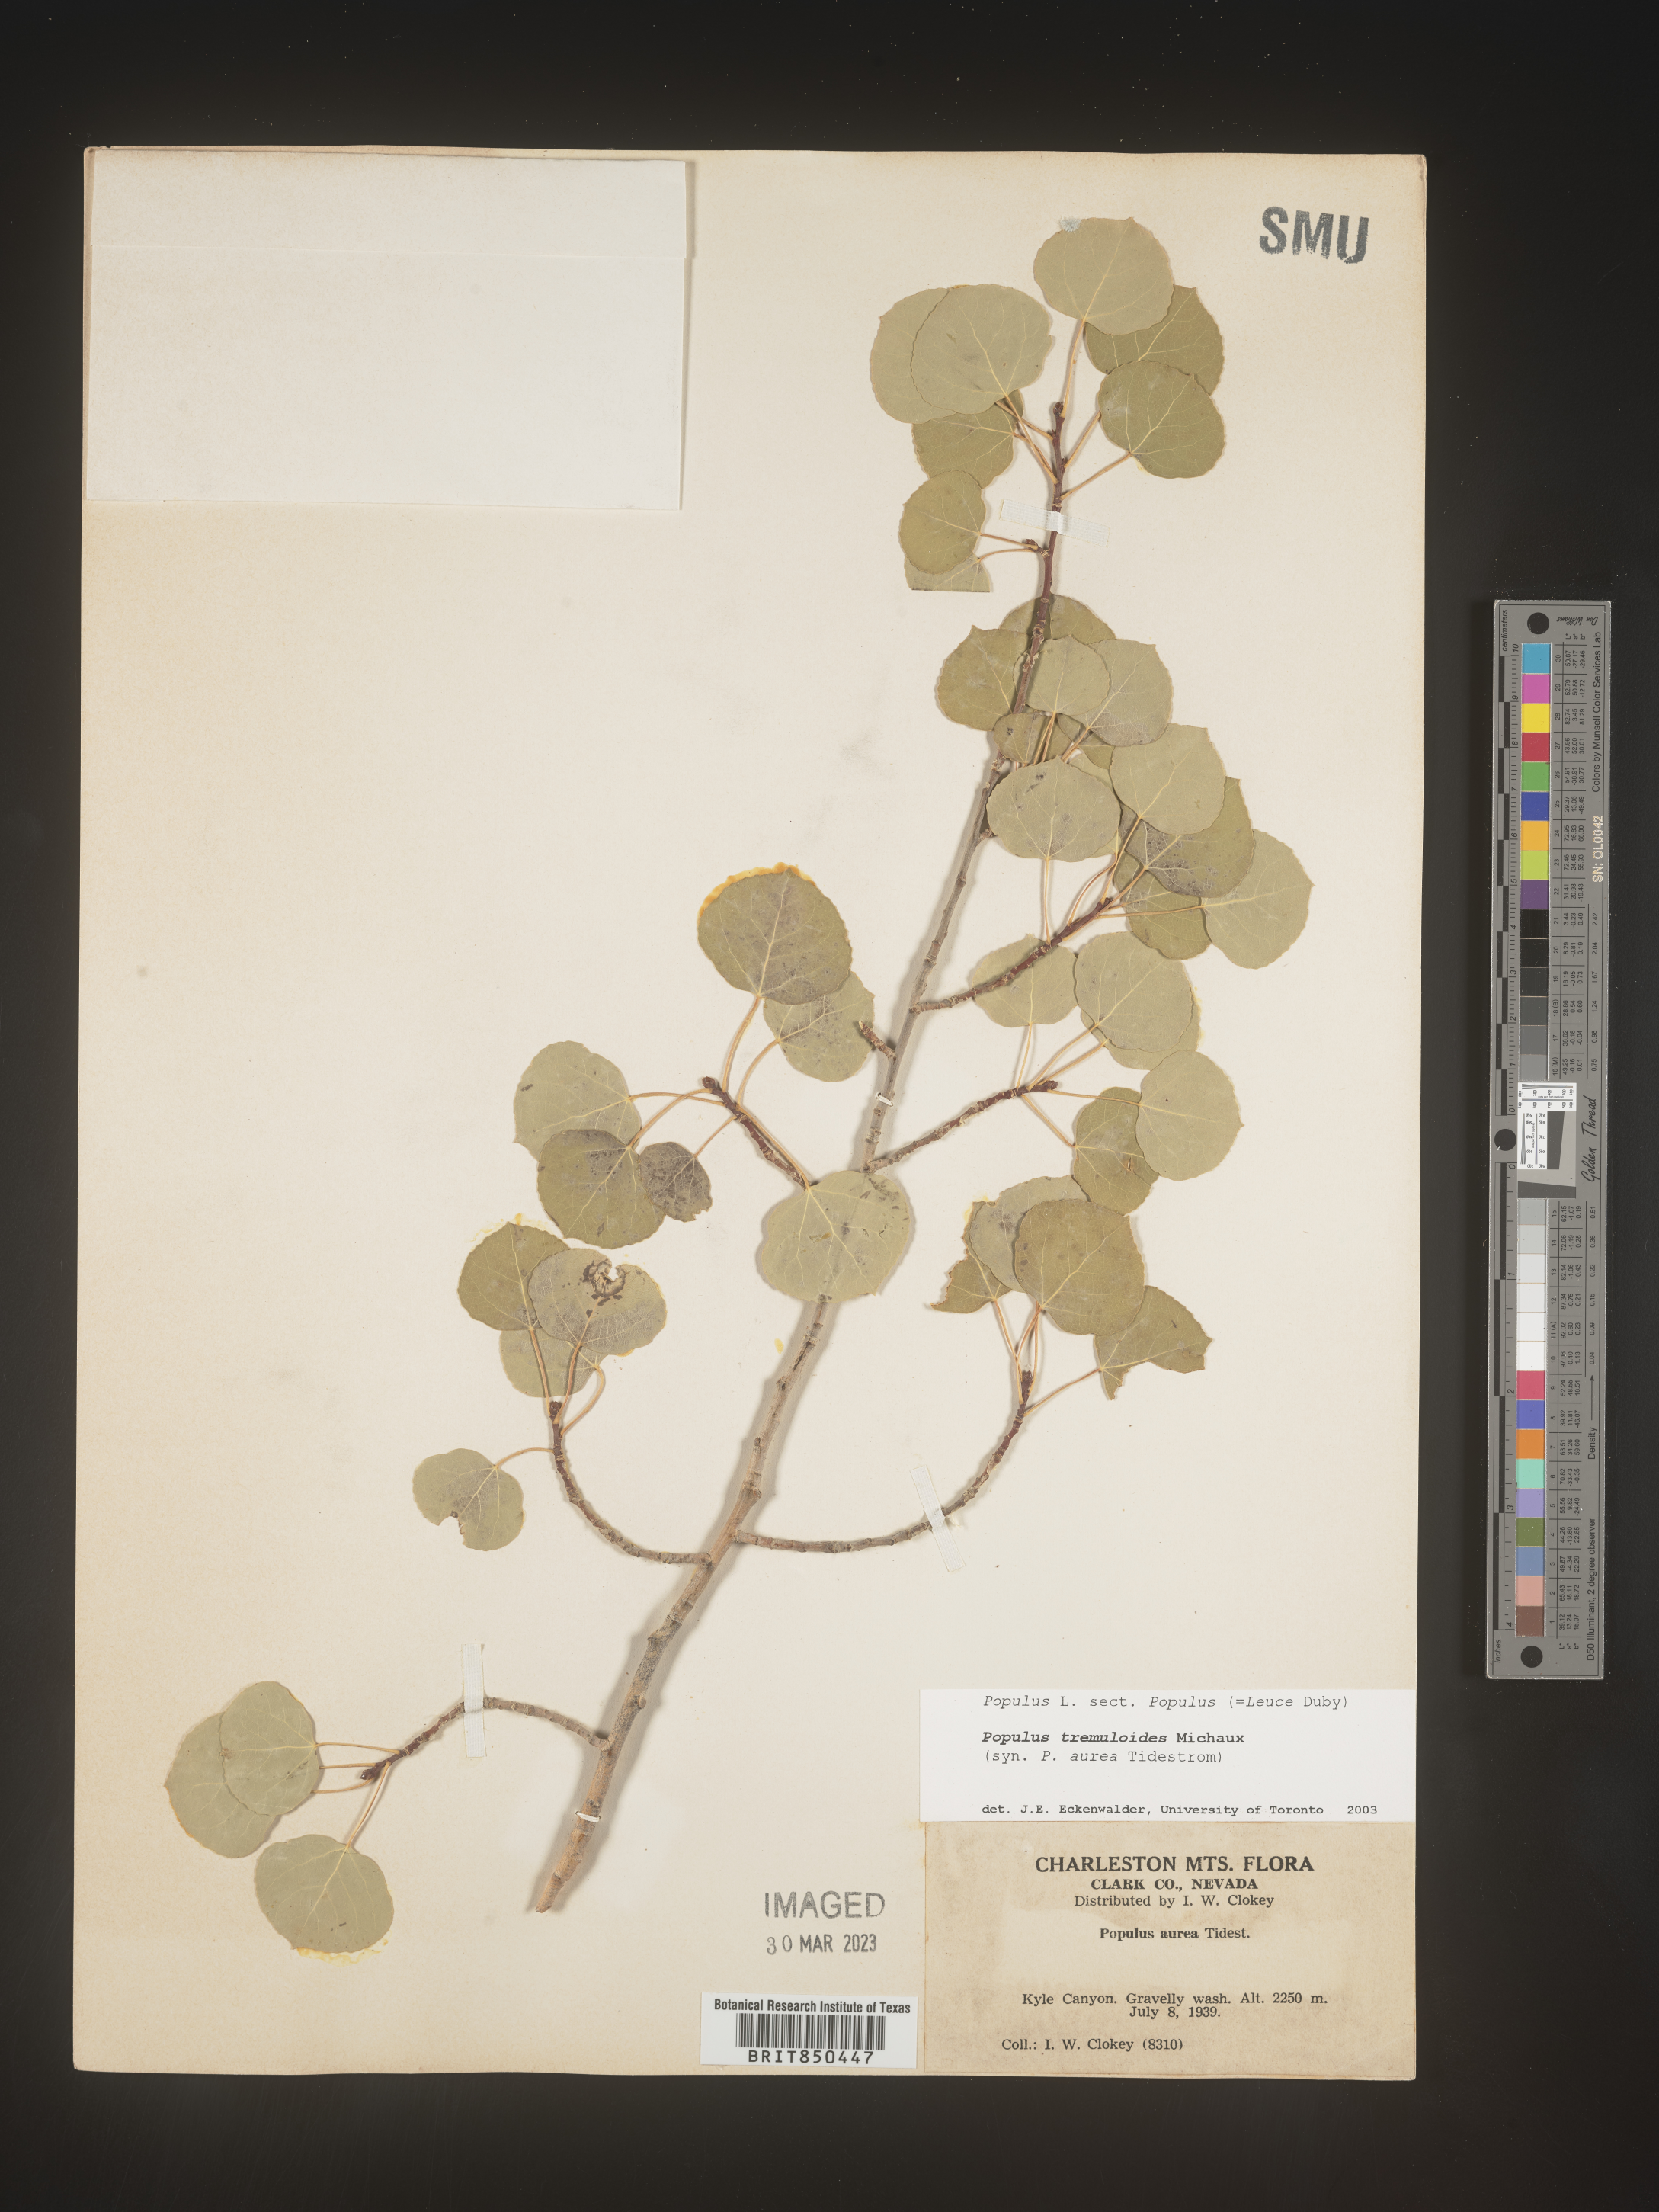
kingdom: Plantae
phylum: Tracheophyta
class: Magnoliopsida
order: Malpighiales
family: Salicaceae
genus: Populus
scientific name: Populus tremuloides
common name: Quaking aspen
